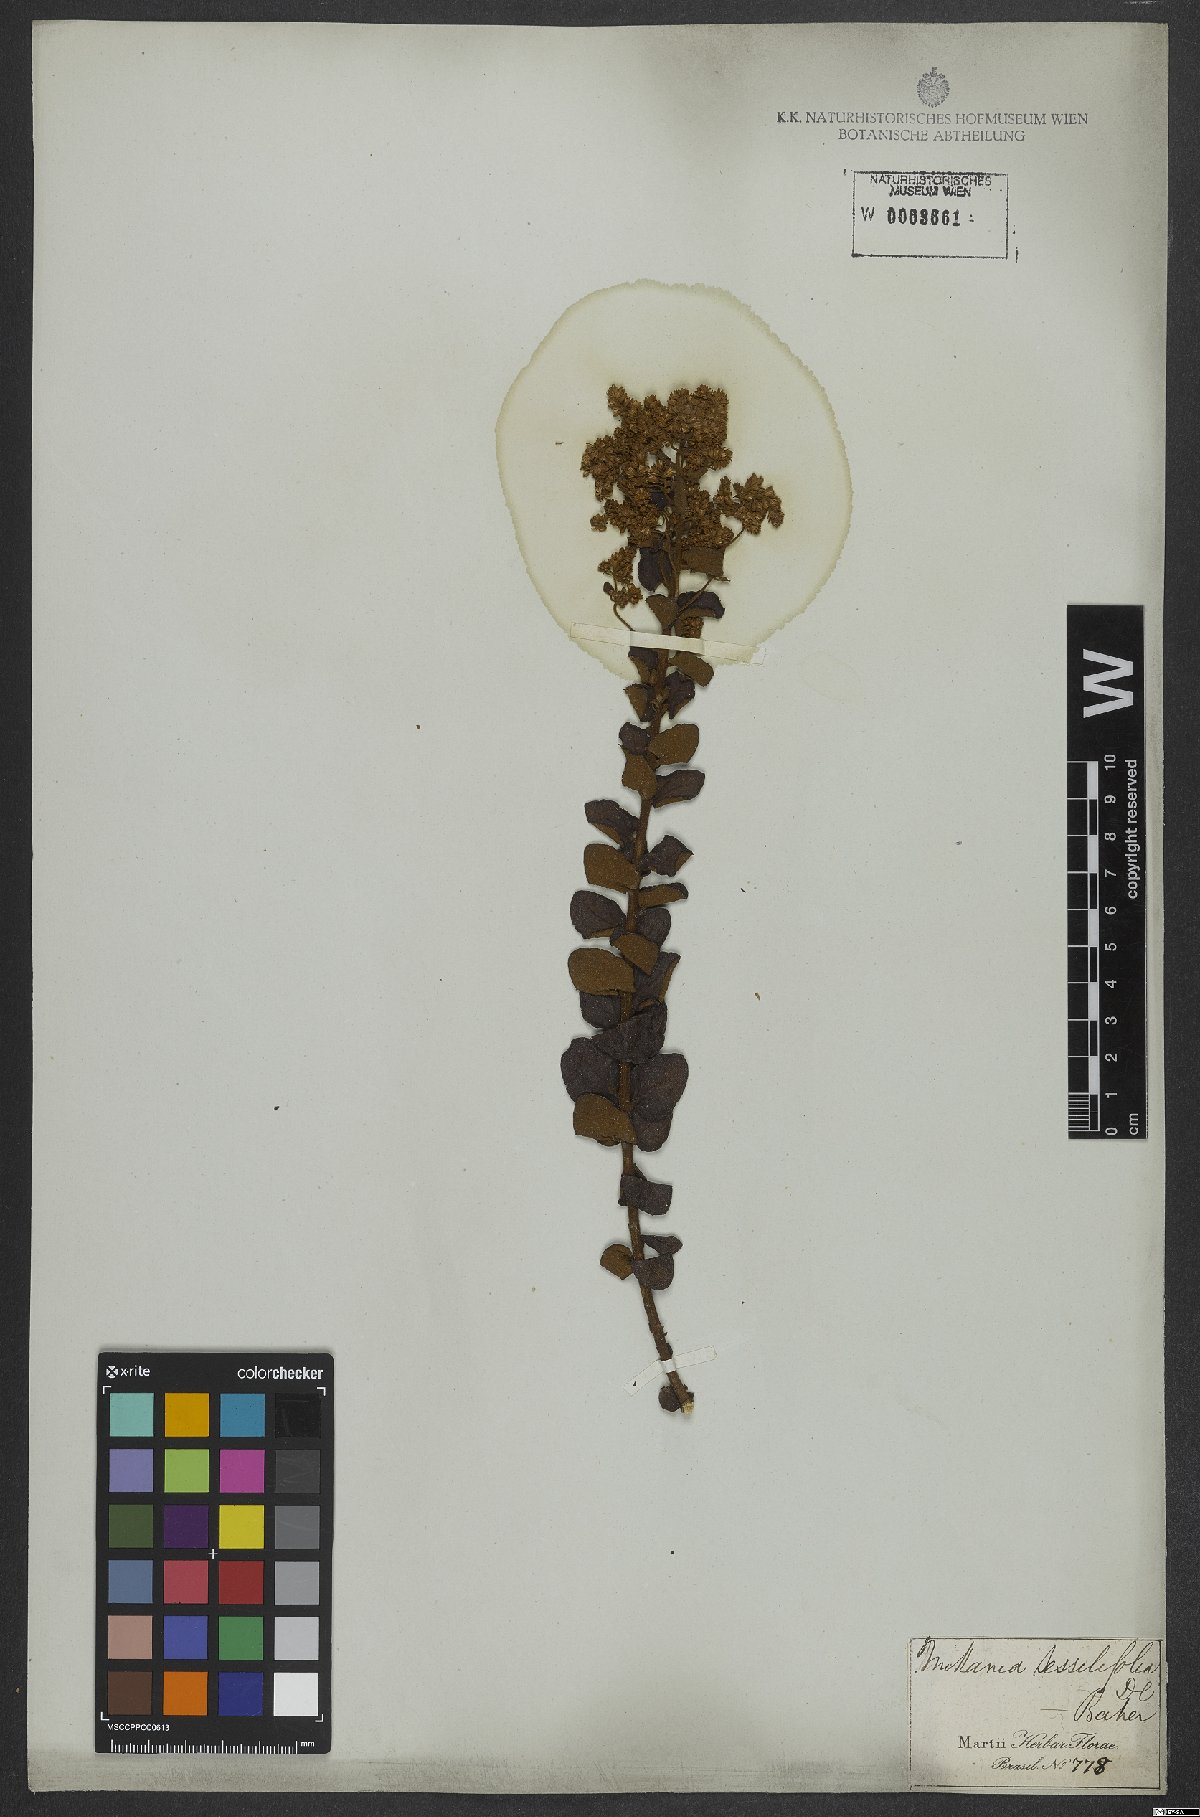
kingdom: Plantae
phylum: Tracheophyta
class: Magnoliopsida
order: Asterales
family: Asteraceae
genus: Mikania
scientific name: Mikania sessilifolia
